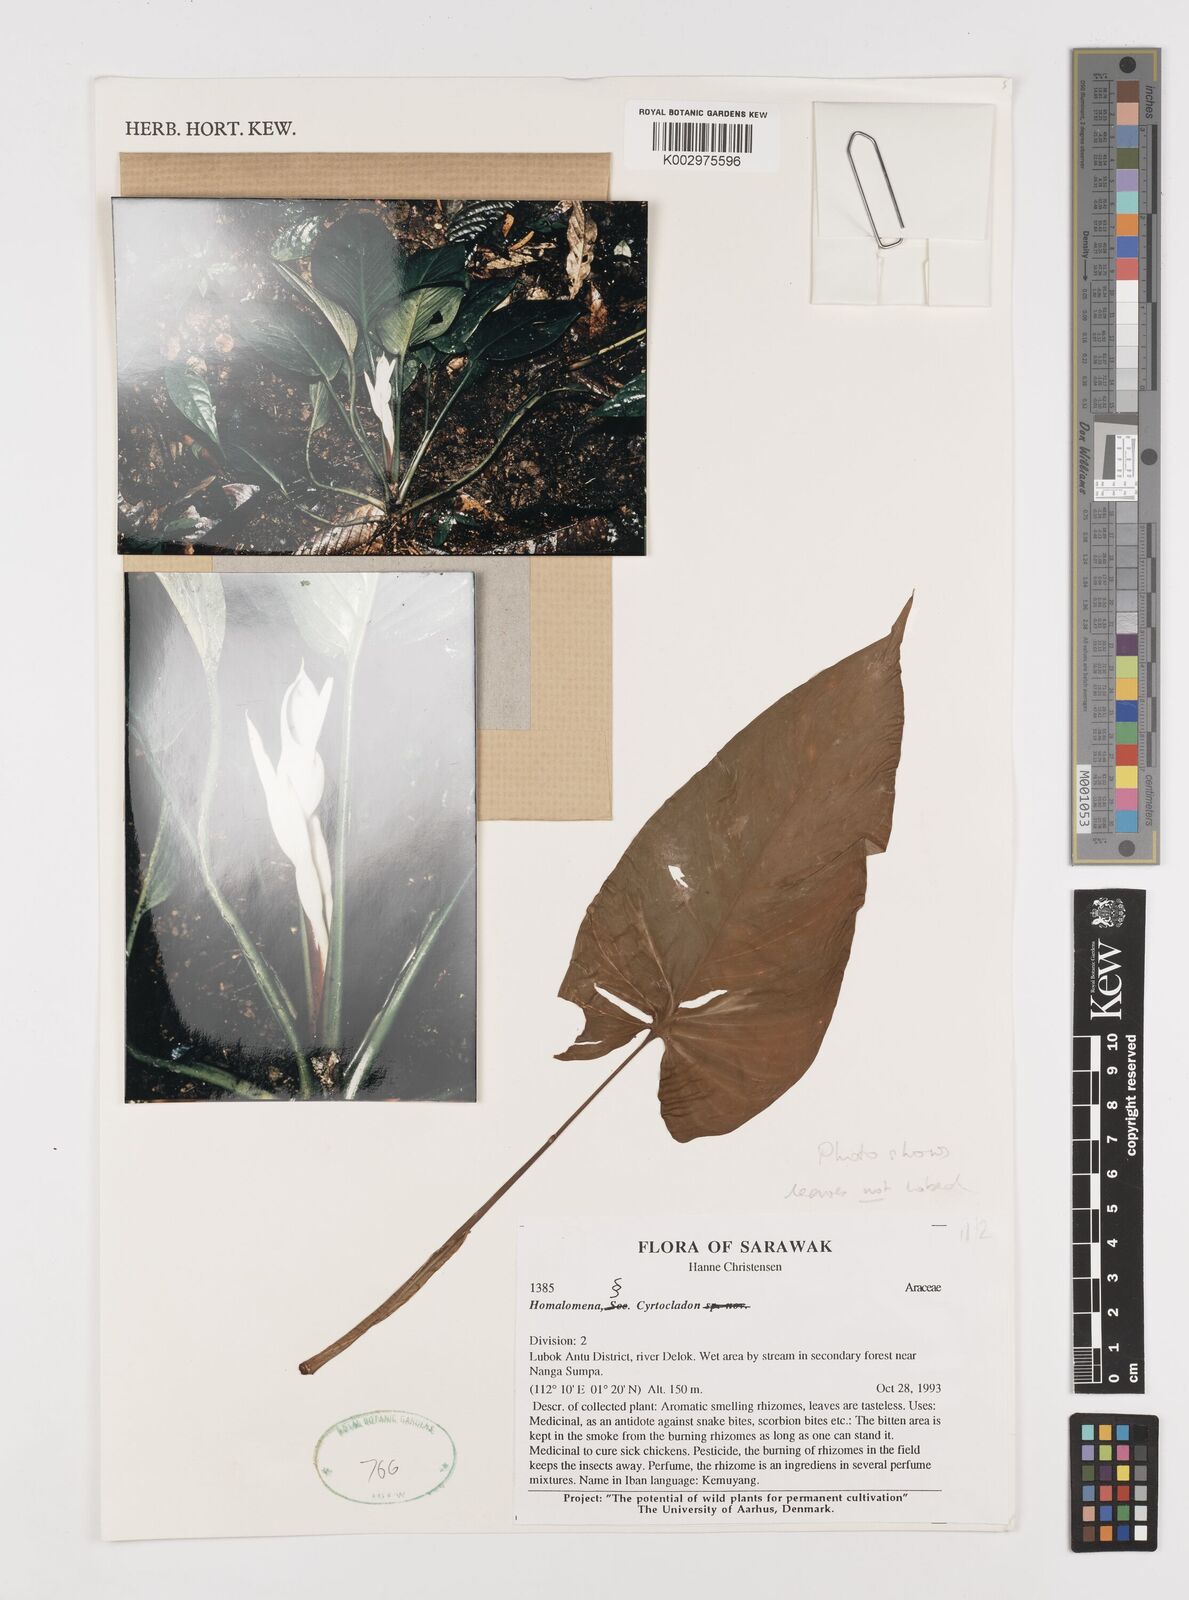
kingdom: Plantae
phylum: Tracheophyta
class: Liliopsida
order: Alismatales
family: Araceae
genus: Homalomena
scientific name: Homalomena
